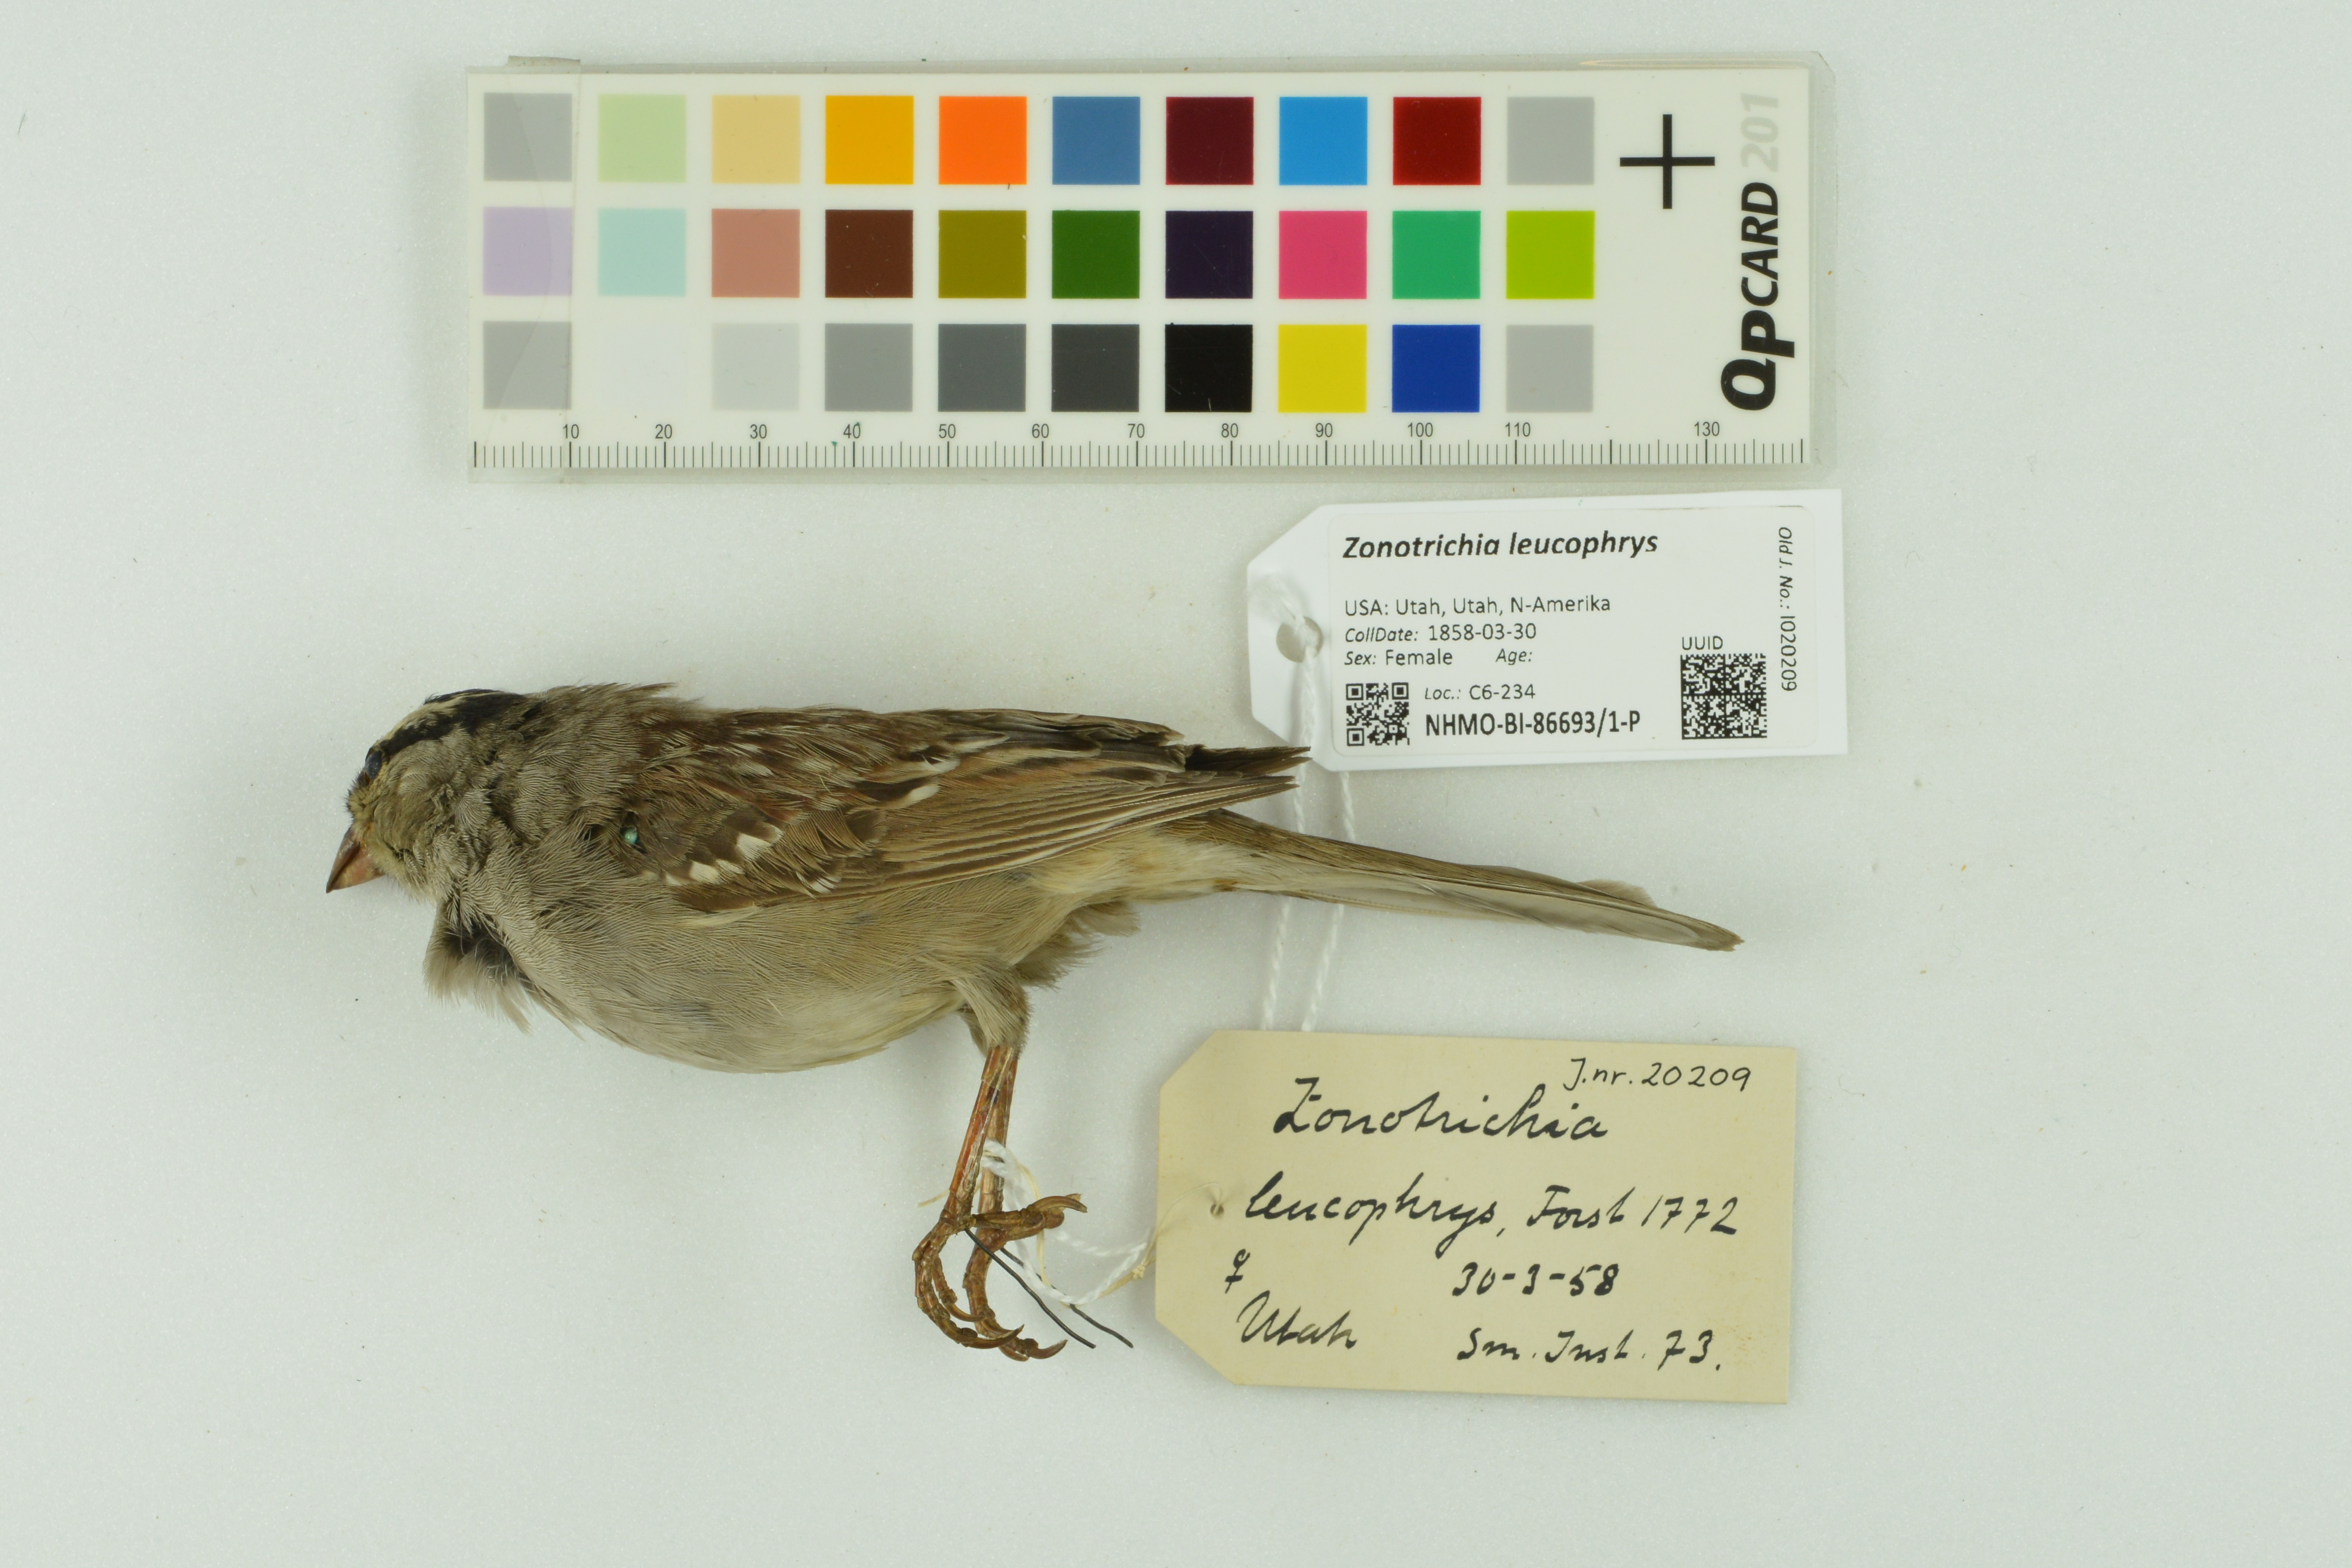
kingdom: Animalia
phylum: Chordata
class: Aves
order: Passeriformes
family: Passerellidae
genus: Zonotrichia
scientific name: Zonotrichia leucophrys
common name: White-crowned sparrow
